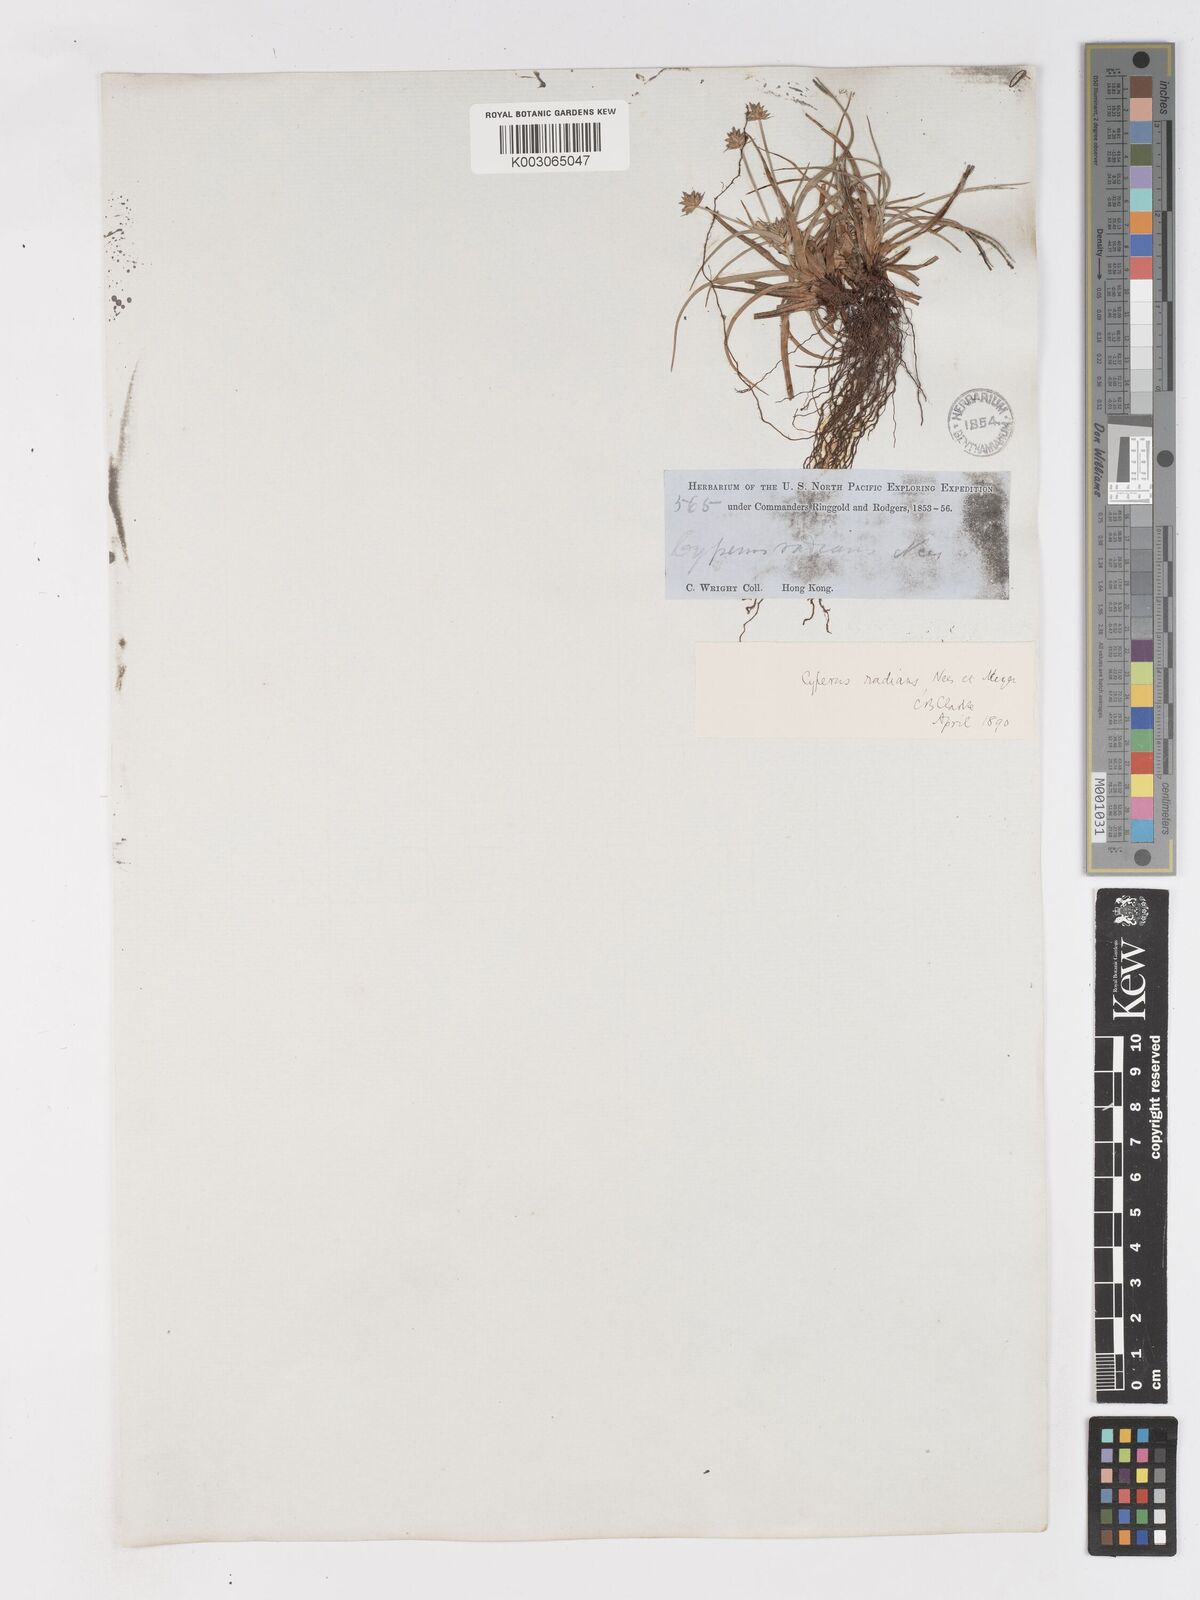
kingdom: Plantae
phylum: Tracheophyta
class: Liliopsida
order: Poales
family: Cyperaceae
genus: Cyperus
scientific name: Cyperus radians
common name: Short-stem cyperus
